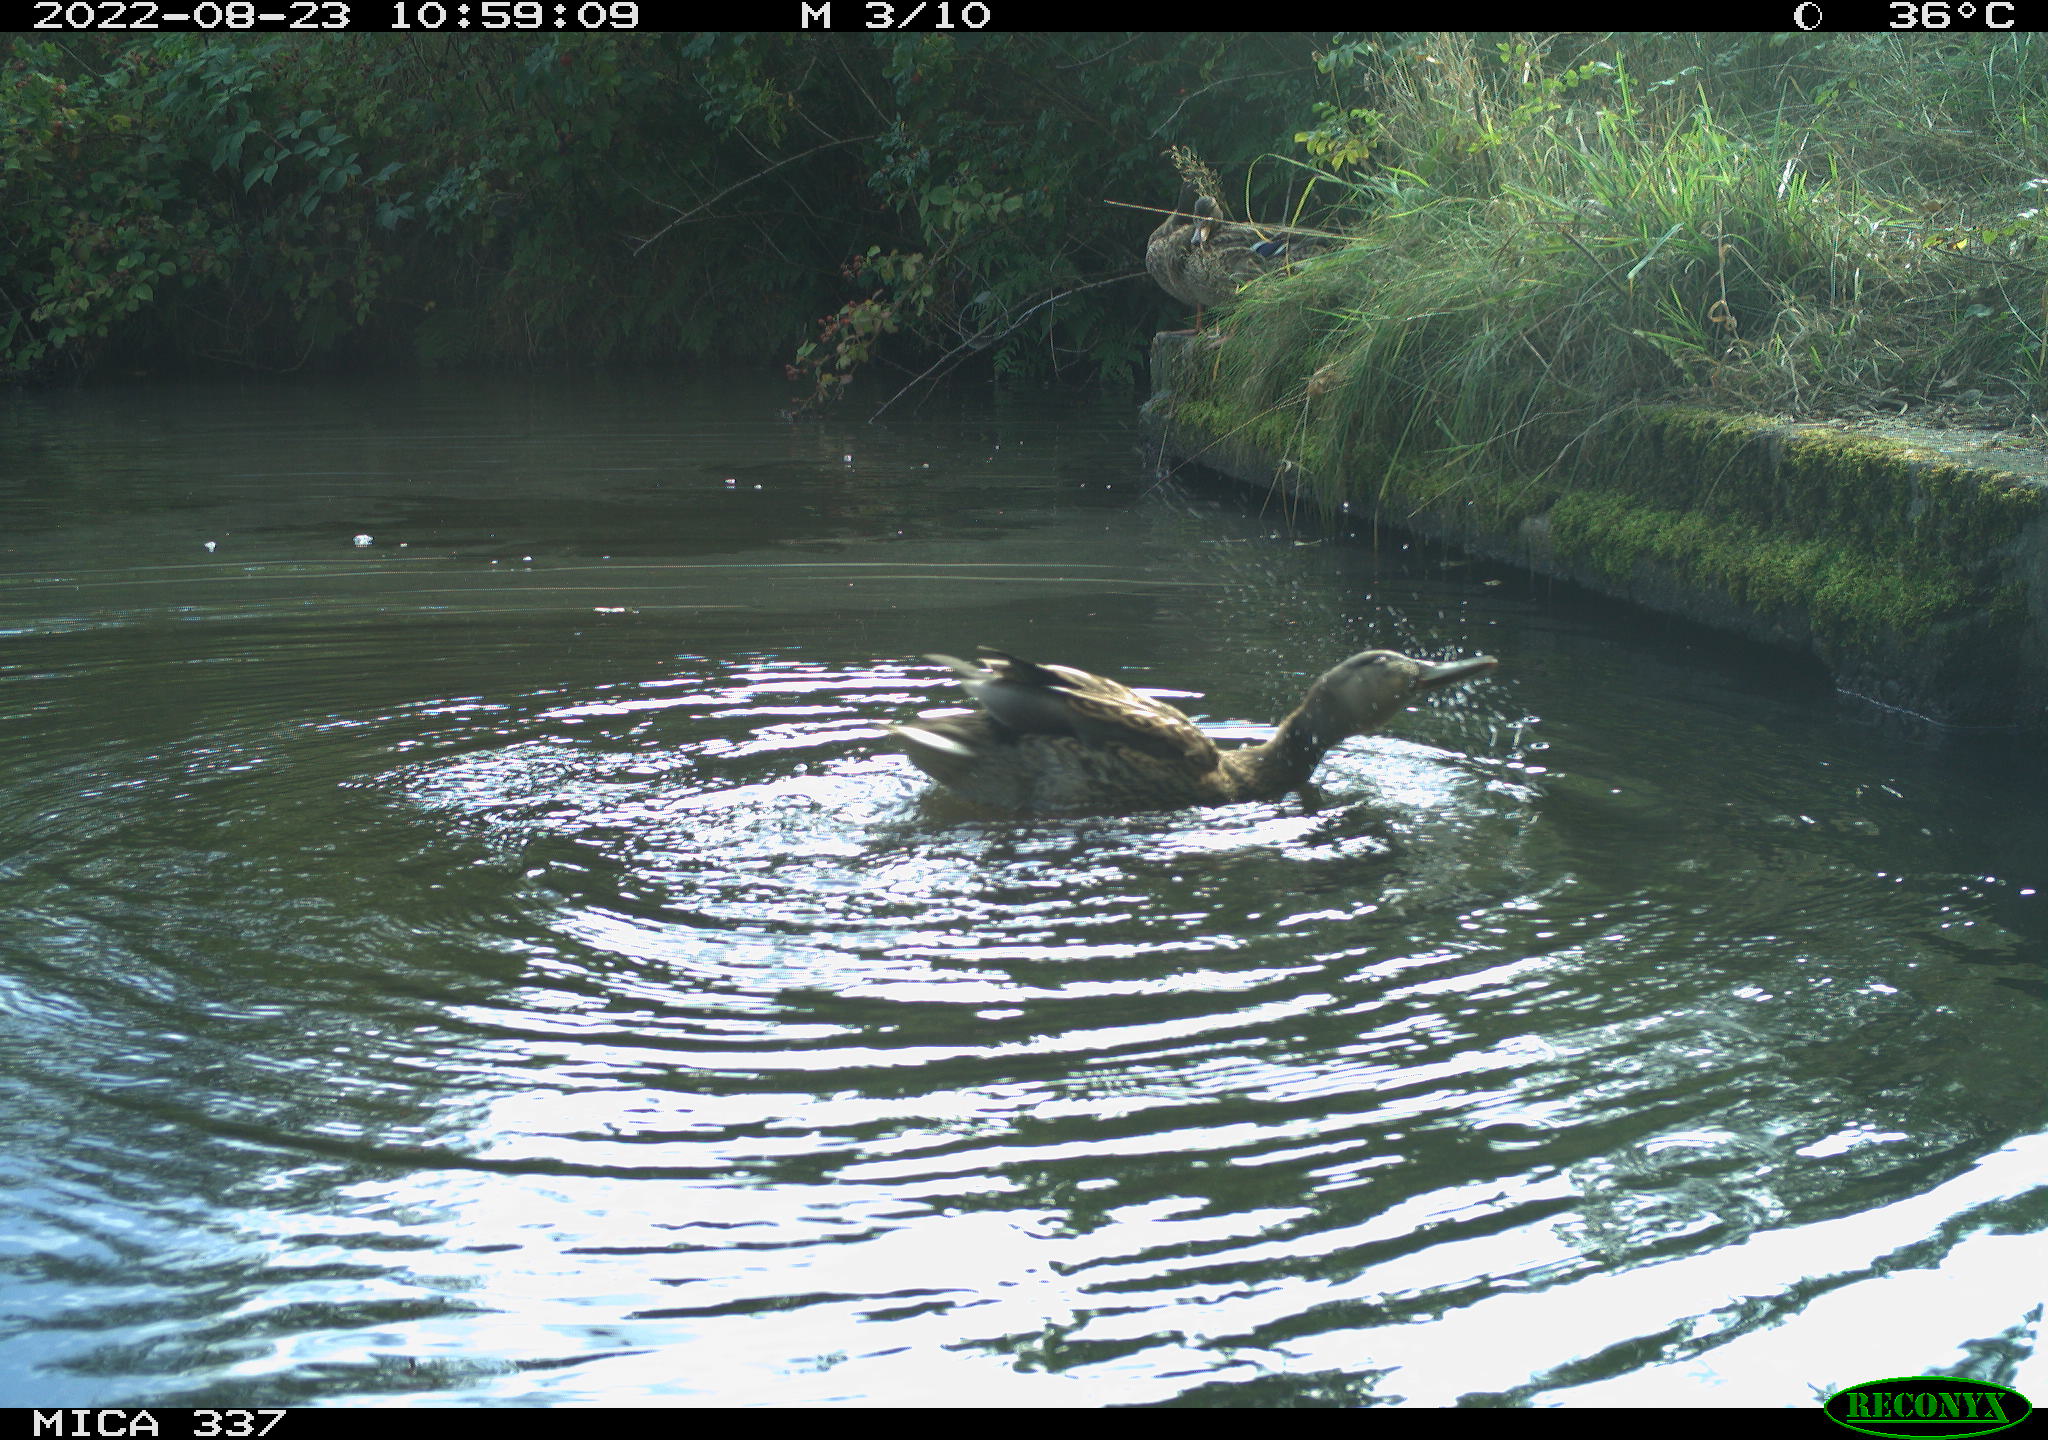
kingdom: Animalia
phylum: Chordata
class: Aves
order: Anseriformes
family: Anatidae
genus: Anas
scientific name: Anas platyrhynchos
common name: Mallard
